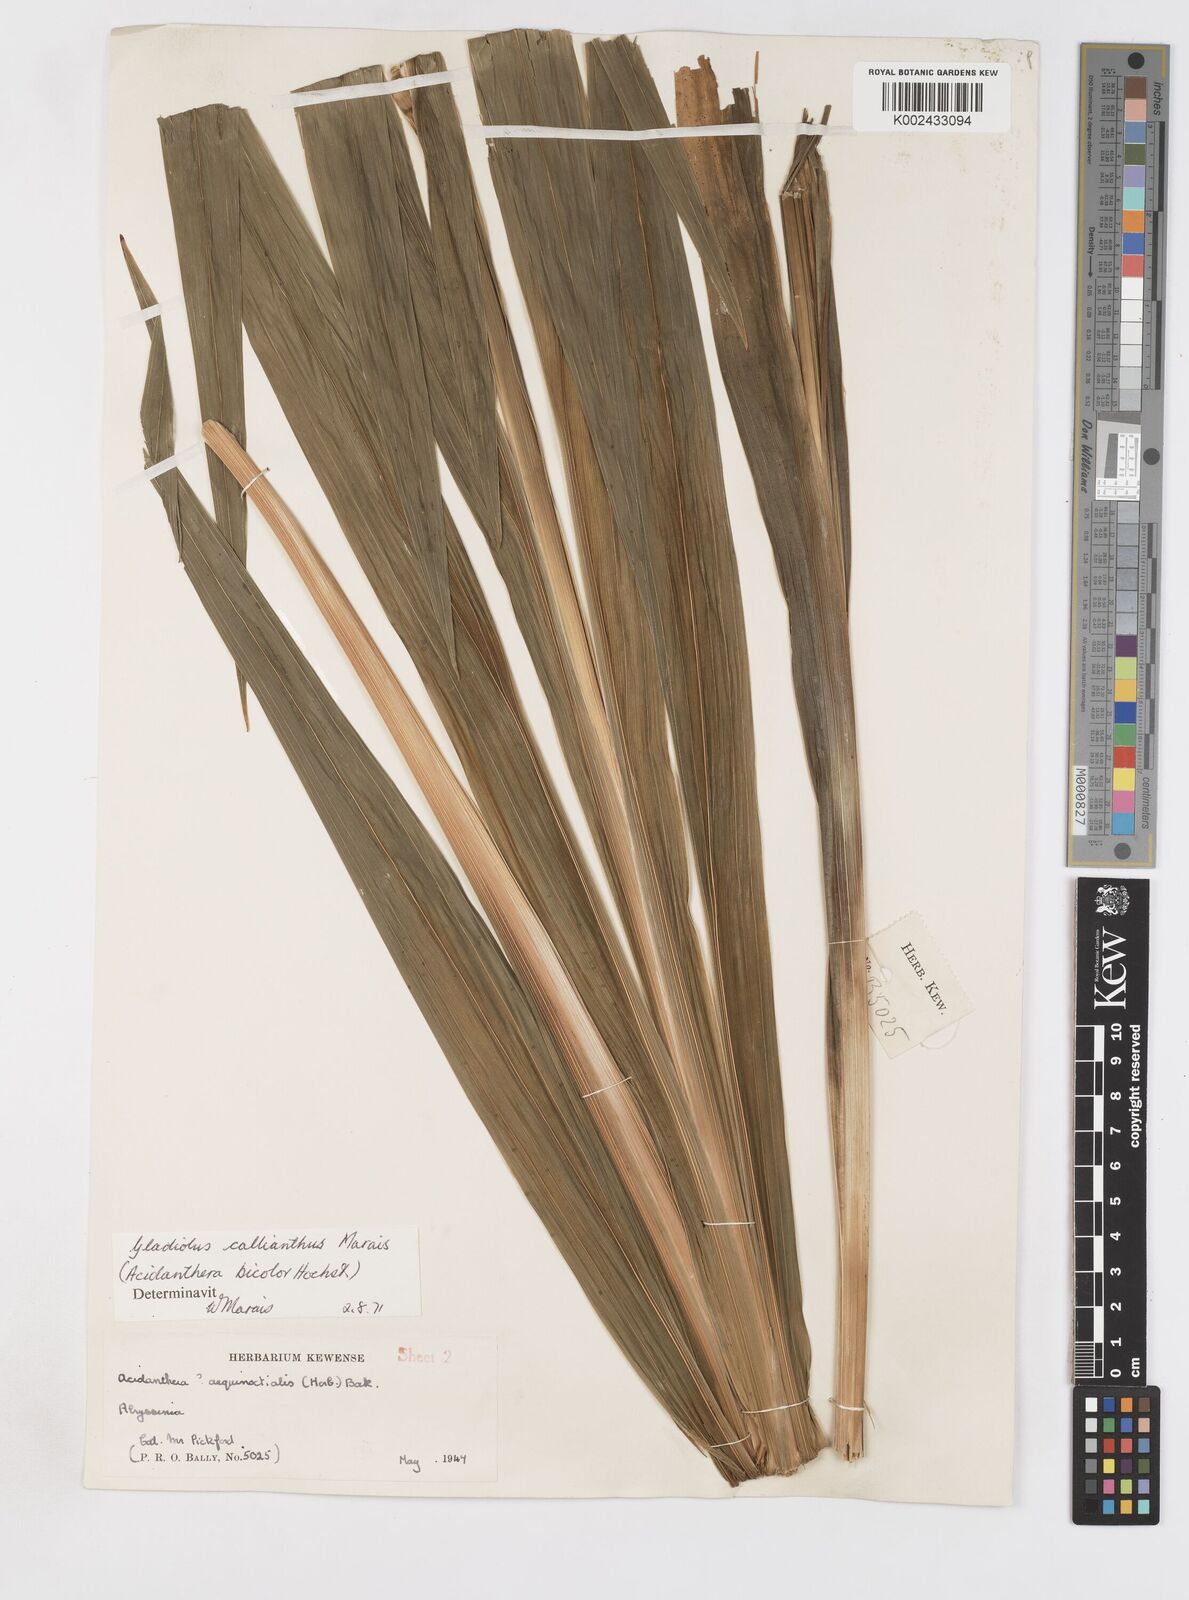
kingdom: Plantae
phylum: Tracheophyta
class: Liliopsida
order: Asparagales
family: Iridaceae
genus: Gladiolus
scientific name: Gladiolus murielae
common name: Acidanthera
